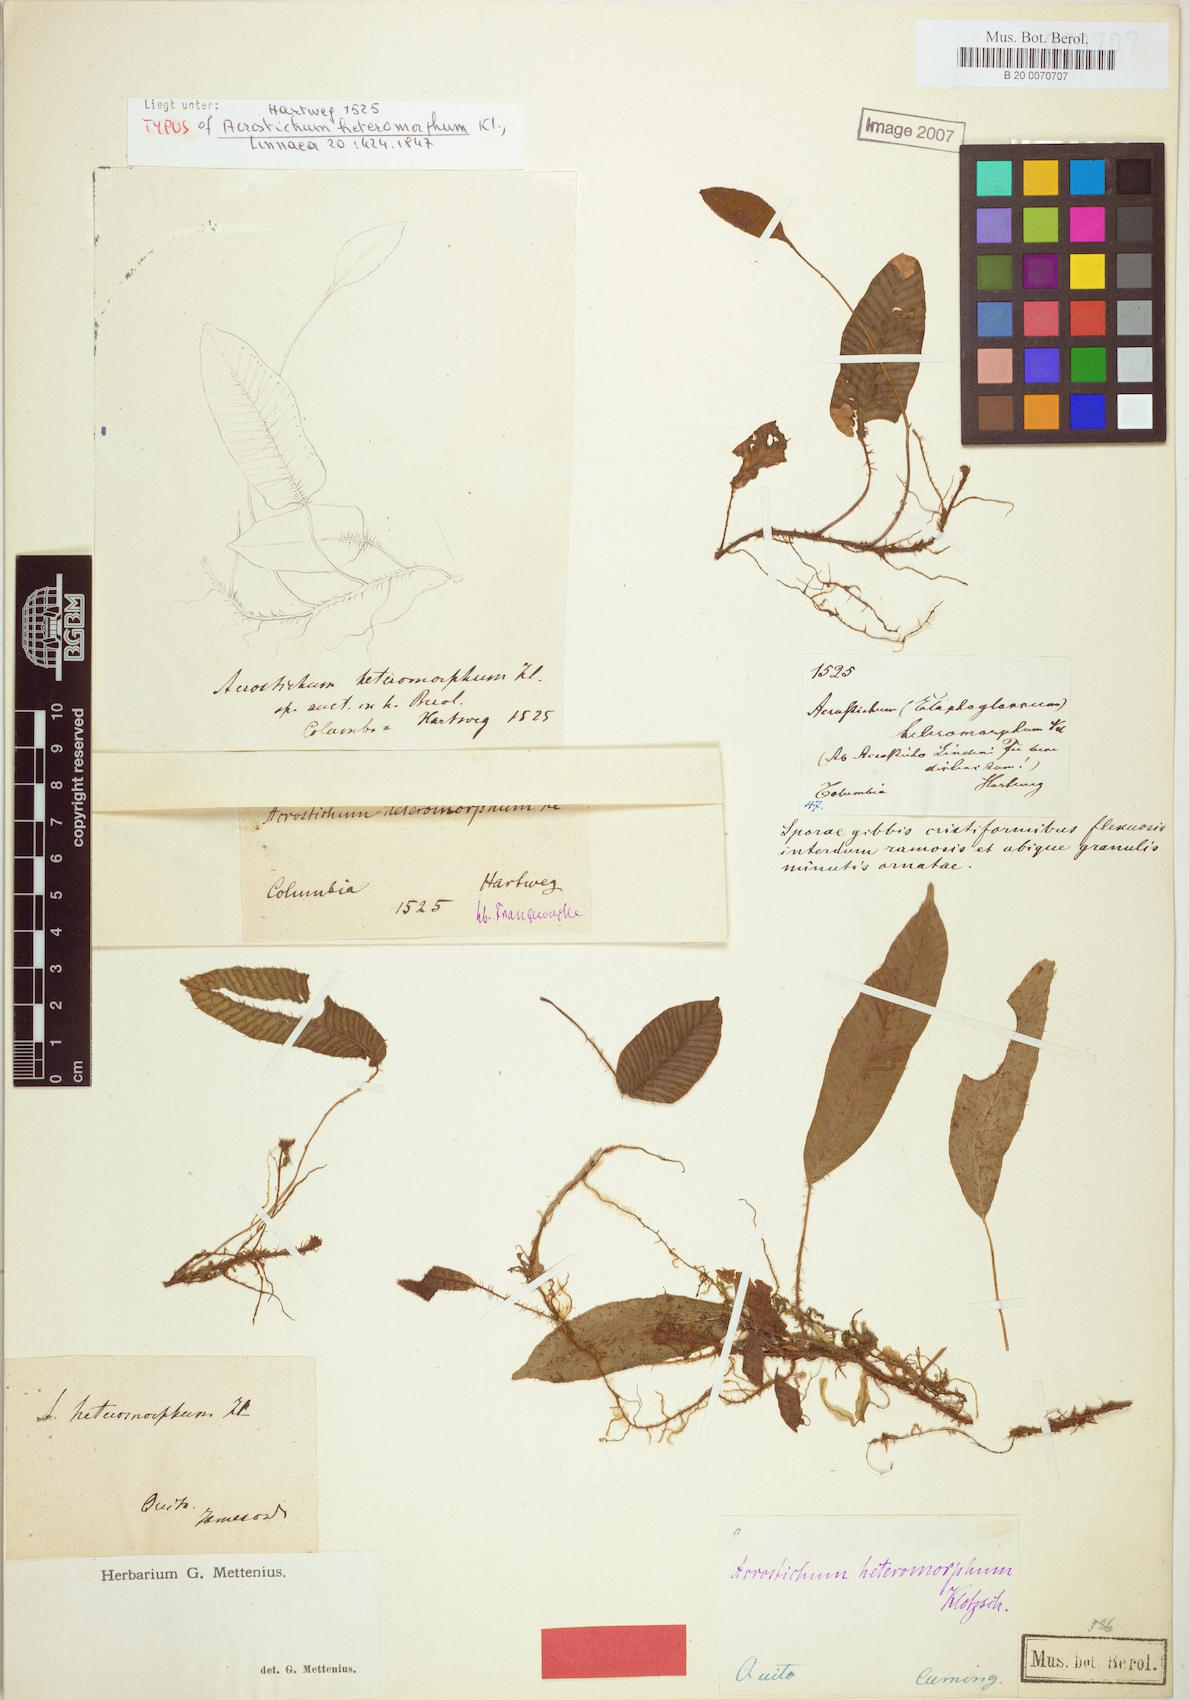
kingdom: Plantae
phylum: Tracheophyta
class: Polypodiopsida
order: Polypodiales
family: Dryopteridaceae
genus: Elaphoglossum
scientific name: Elaphoglossum heteromorphum
